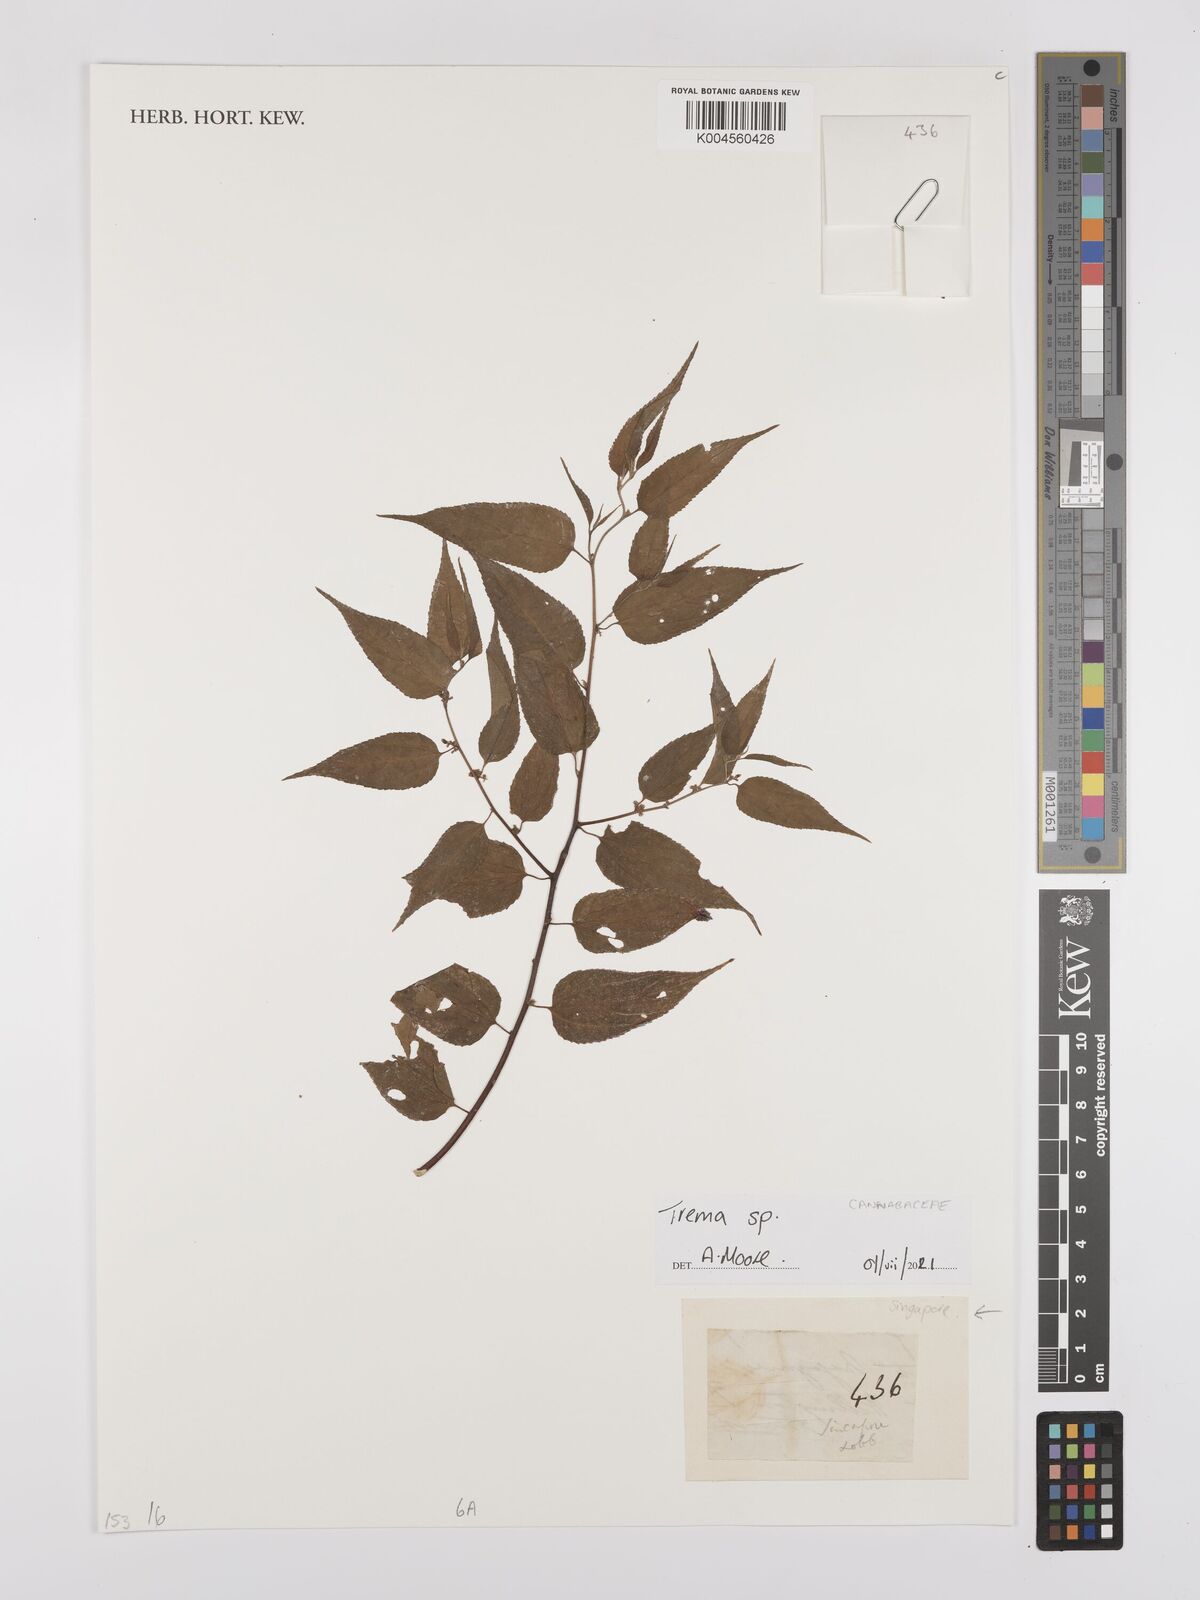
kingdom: Plantae
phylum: Tracheophyta
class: Magnoliopsida
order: Rosales
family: Cannabaceae
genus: Trema
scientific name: Trema
